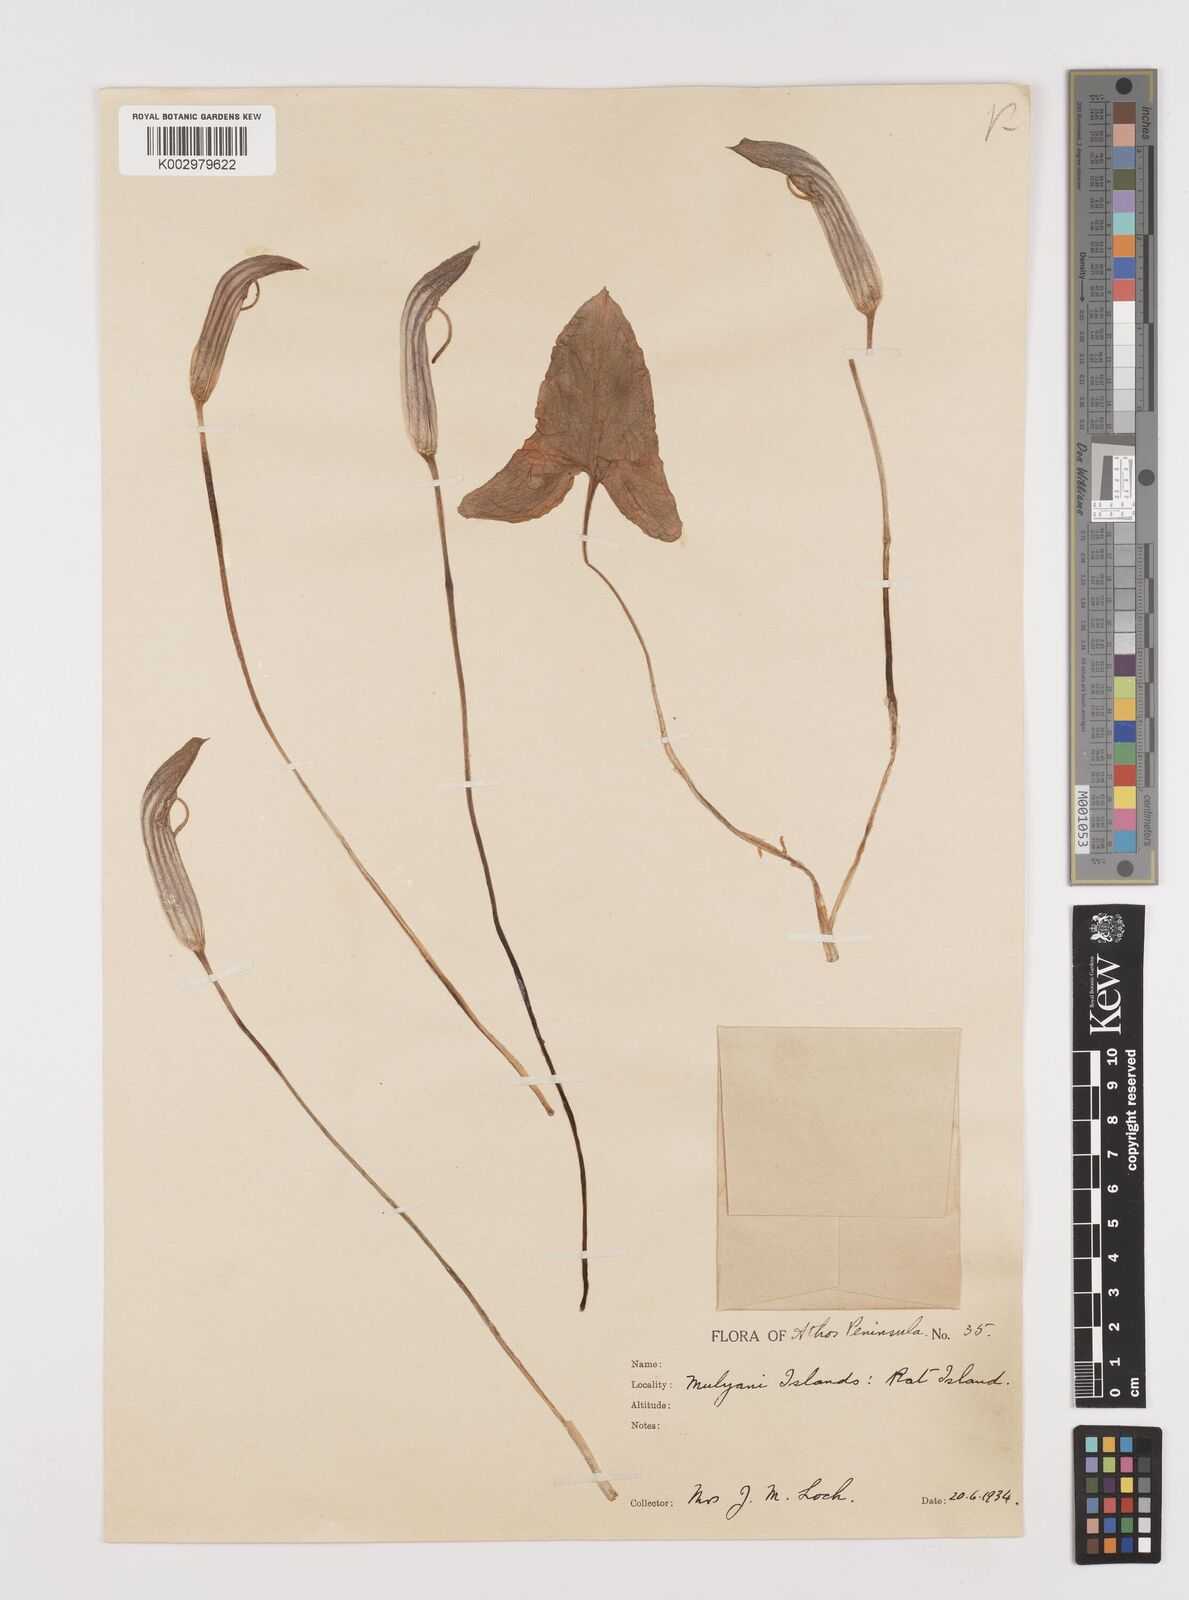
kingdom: Plantae
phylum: Tracheophyta
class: Liliopsida
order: Alismatales
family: Araceae
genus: Arisarum
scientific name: Arisarum vulgare
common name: Common arisarum
